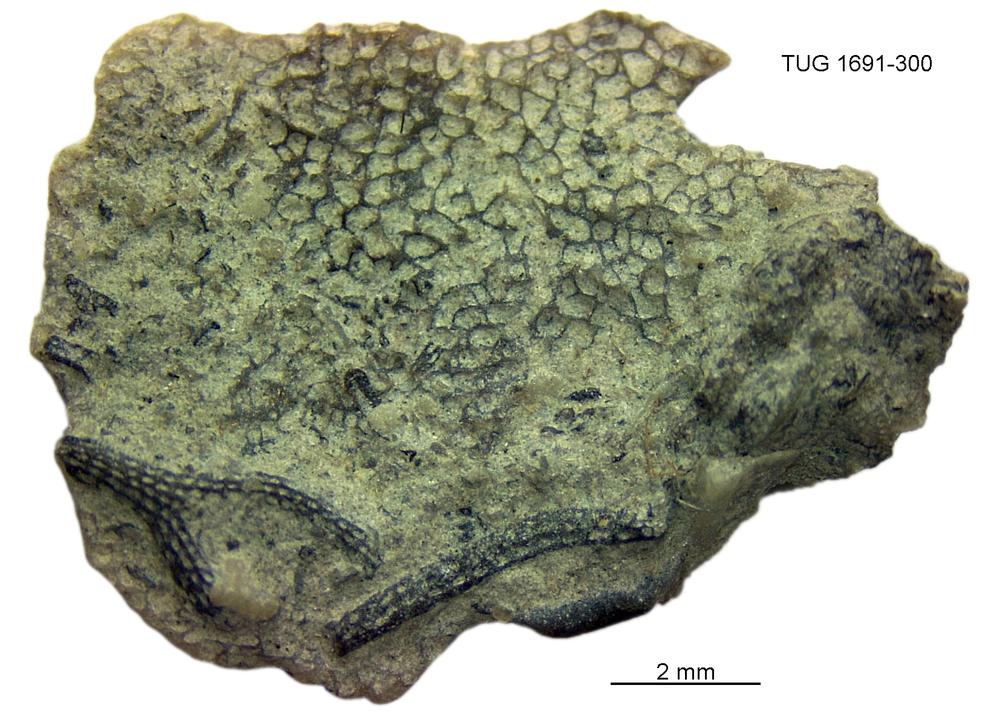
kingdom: Animalia
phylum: Bryozoa
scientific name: Bryozoa
